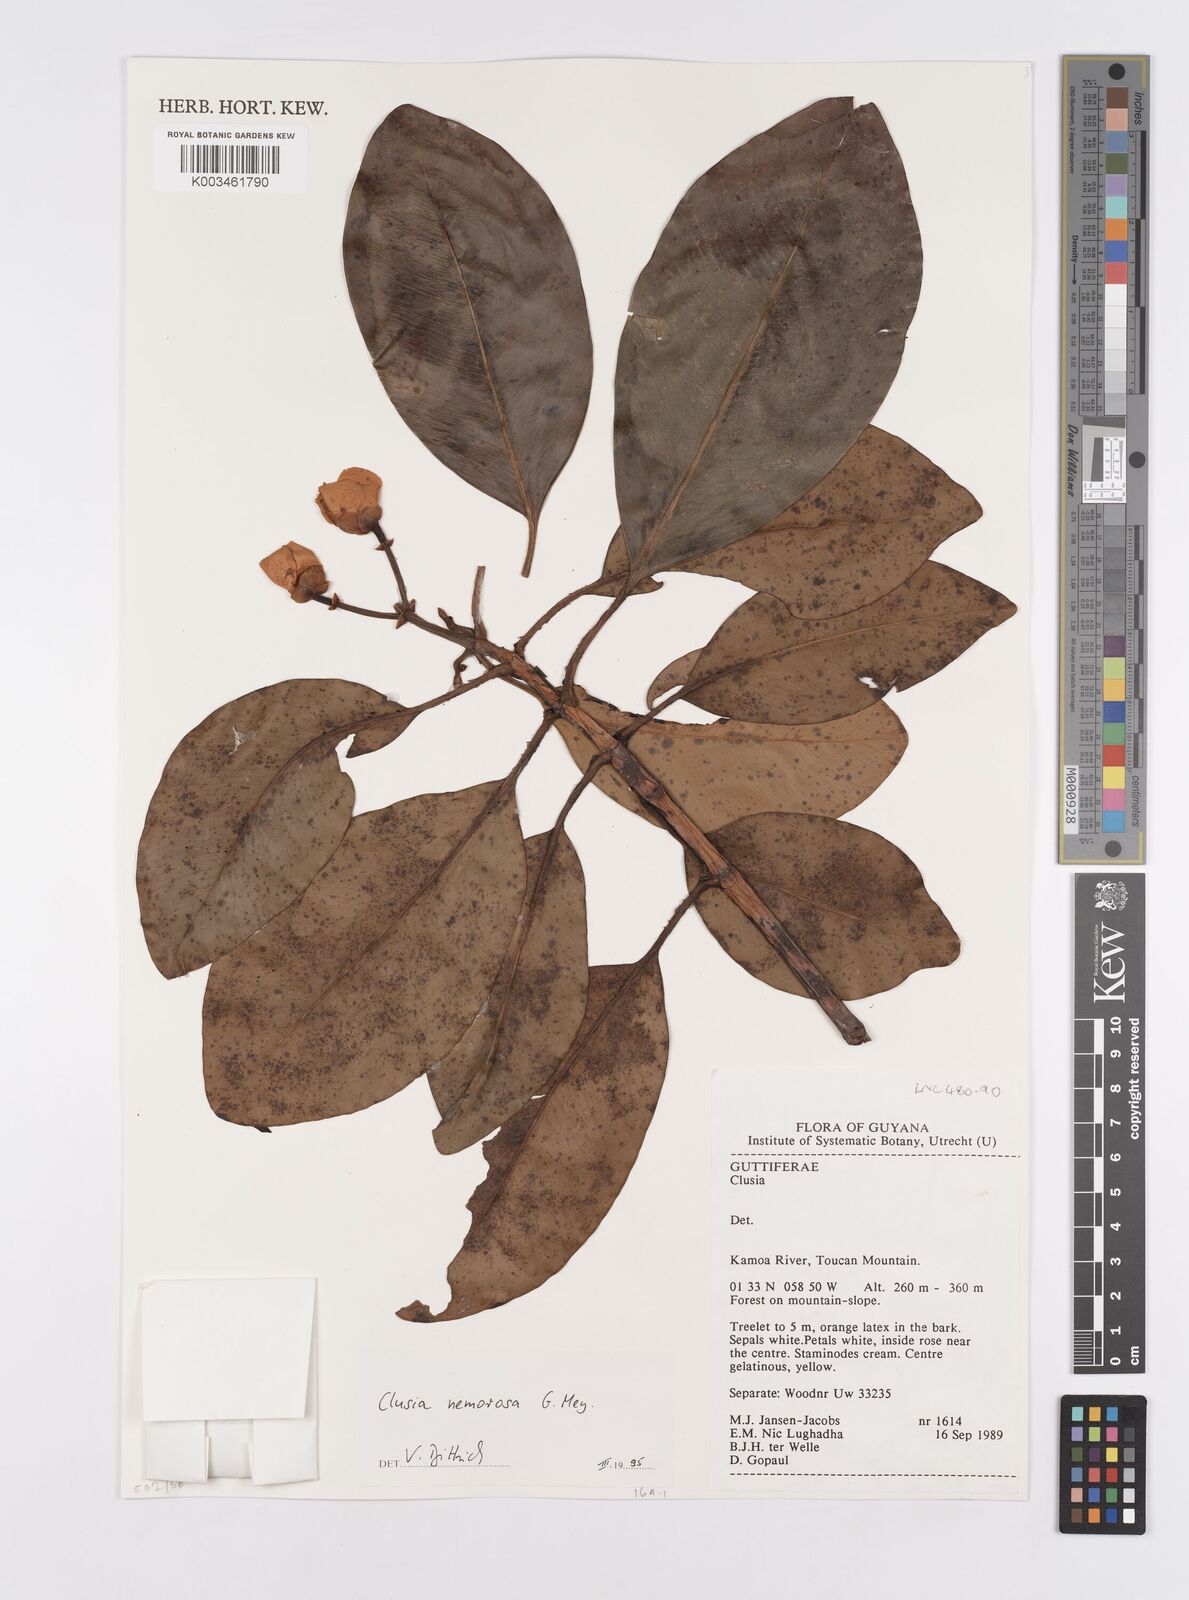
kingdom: Plantae
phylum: Tracheophyta
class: Magnoliopsida
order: Malpighiales
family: Clusiaceae
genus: Clusia
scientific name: Clusia nemorosa
